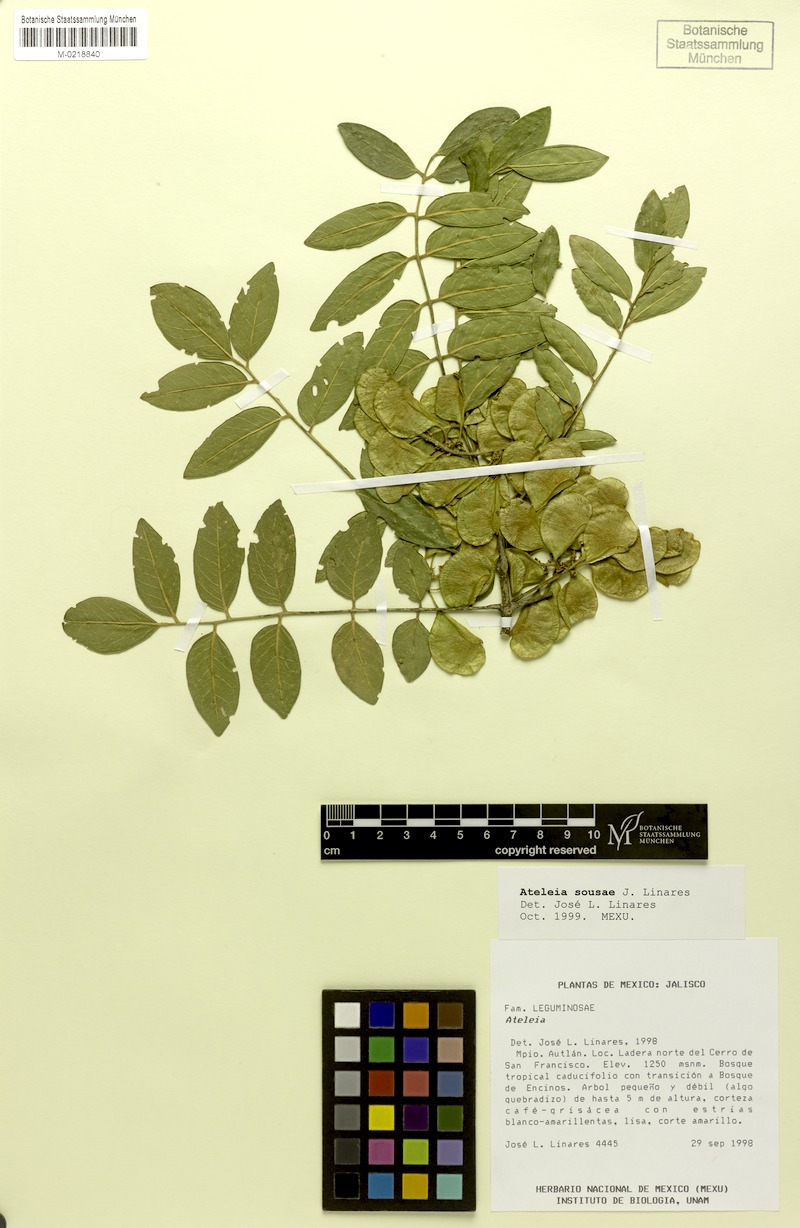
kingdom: Plantae
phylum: Tracheophyta
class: Magnoliopsida
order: Fabales
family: Fabaceae
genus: Ateleia
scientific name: Ateleia sousae
